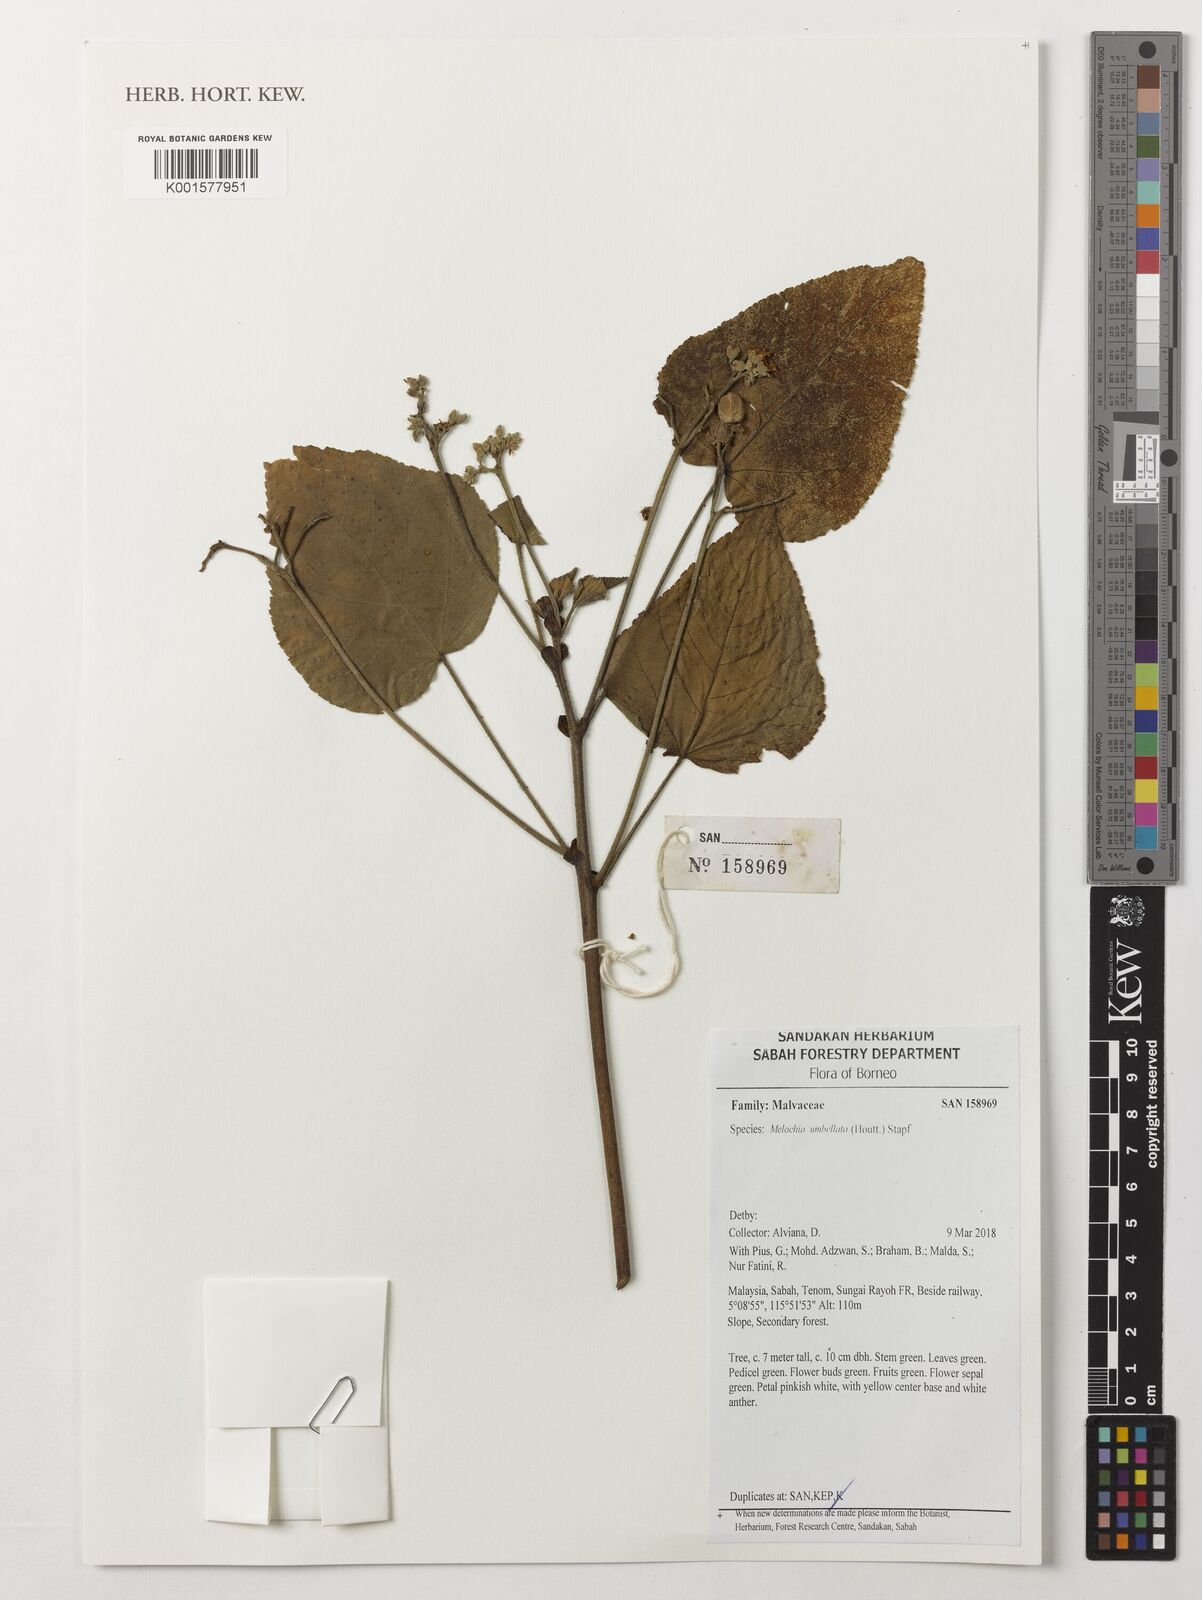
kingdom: Plantae
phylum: Tracheophyta
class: Magnoliopsida
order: Malvales
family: Malvaceae
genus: Melochia
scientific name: Melochia umbellata
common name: Gunpowder tree
